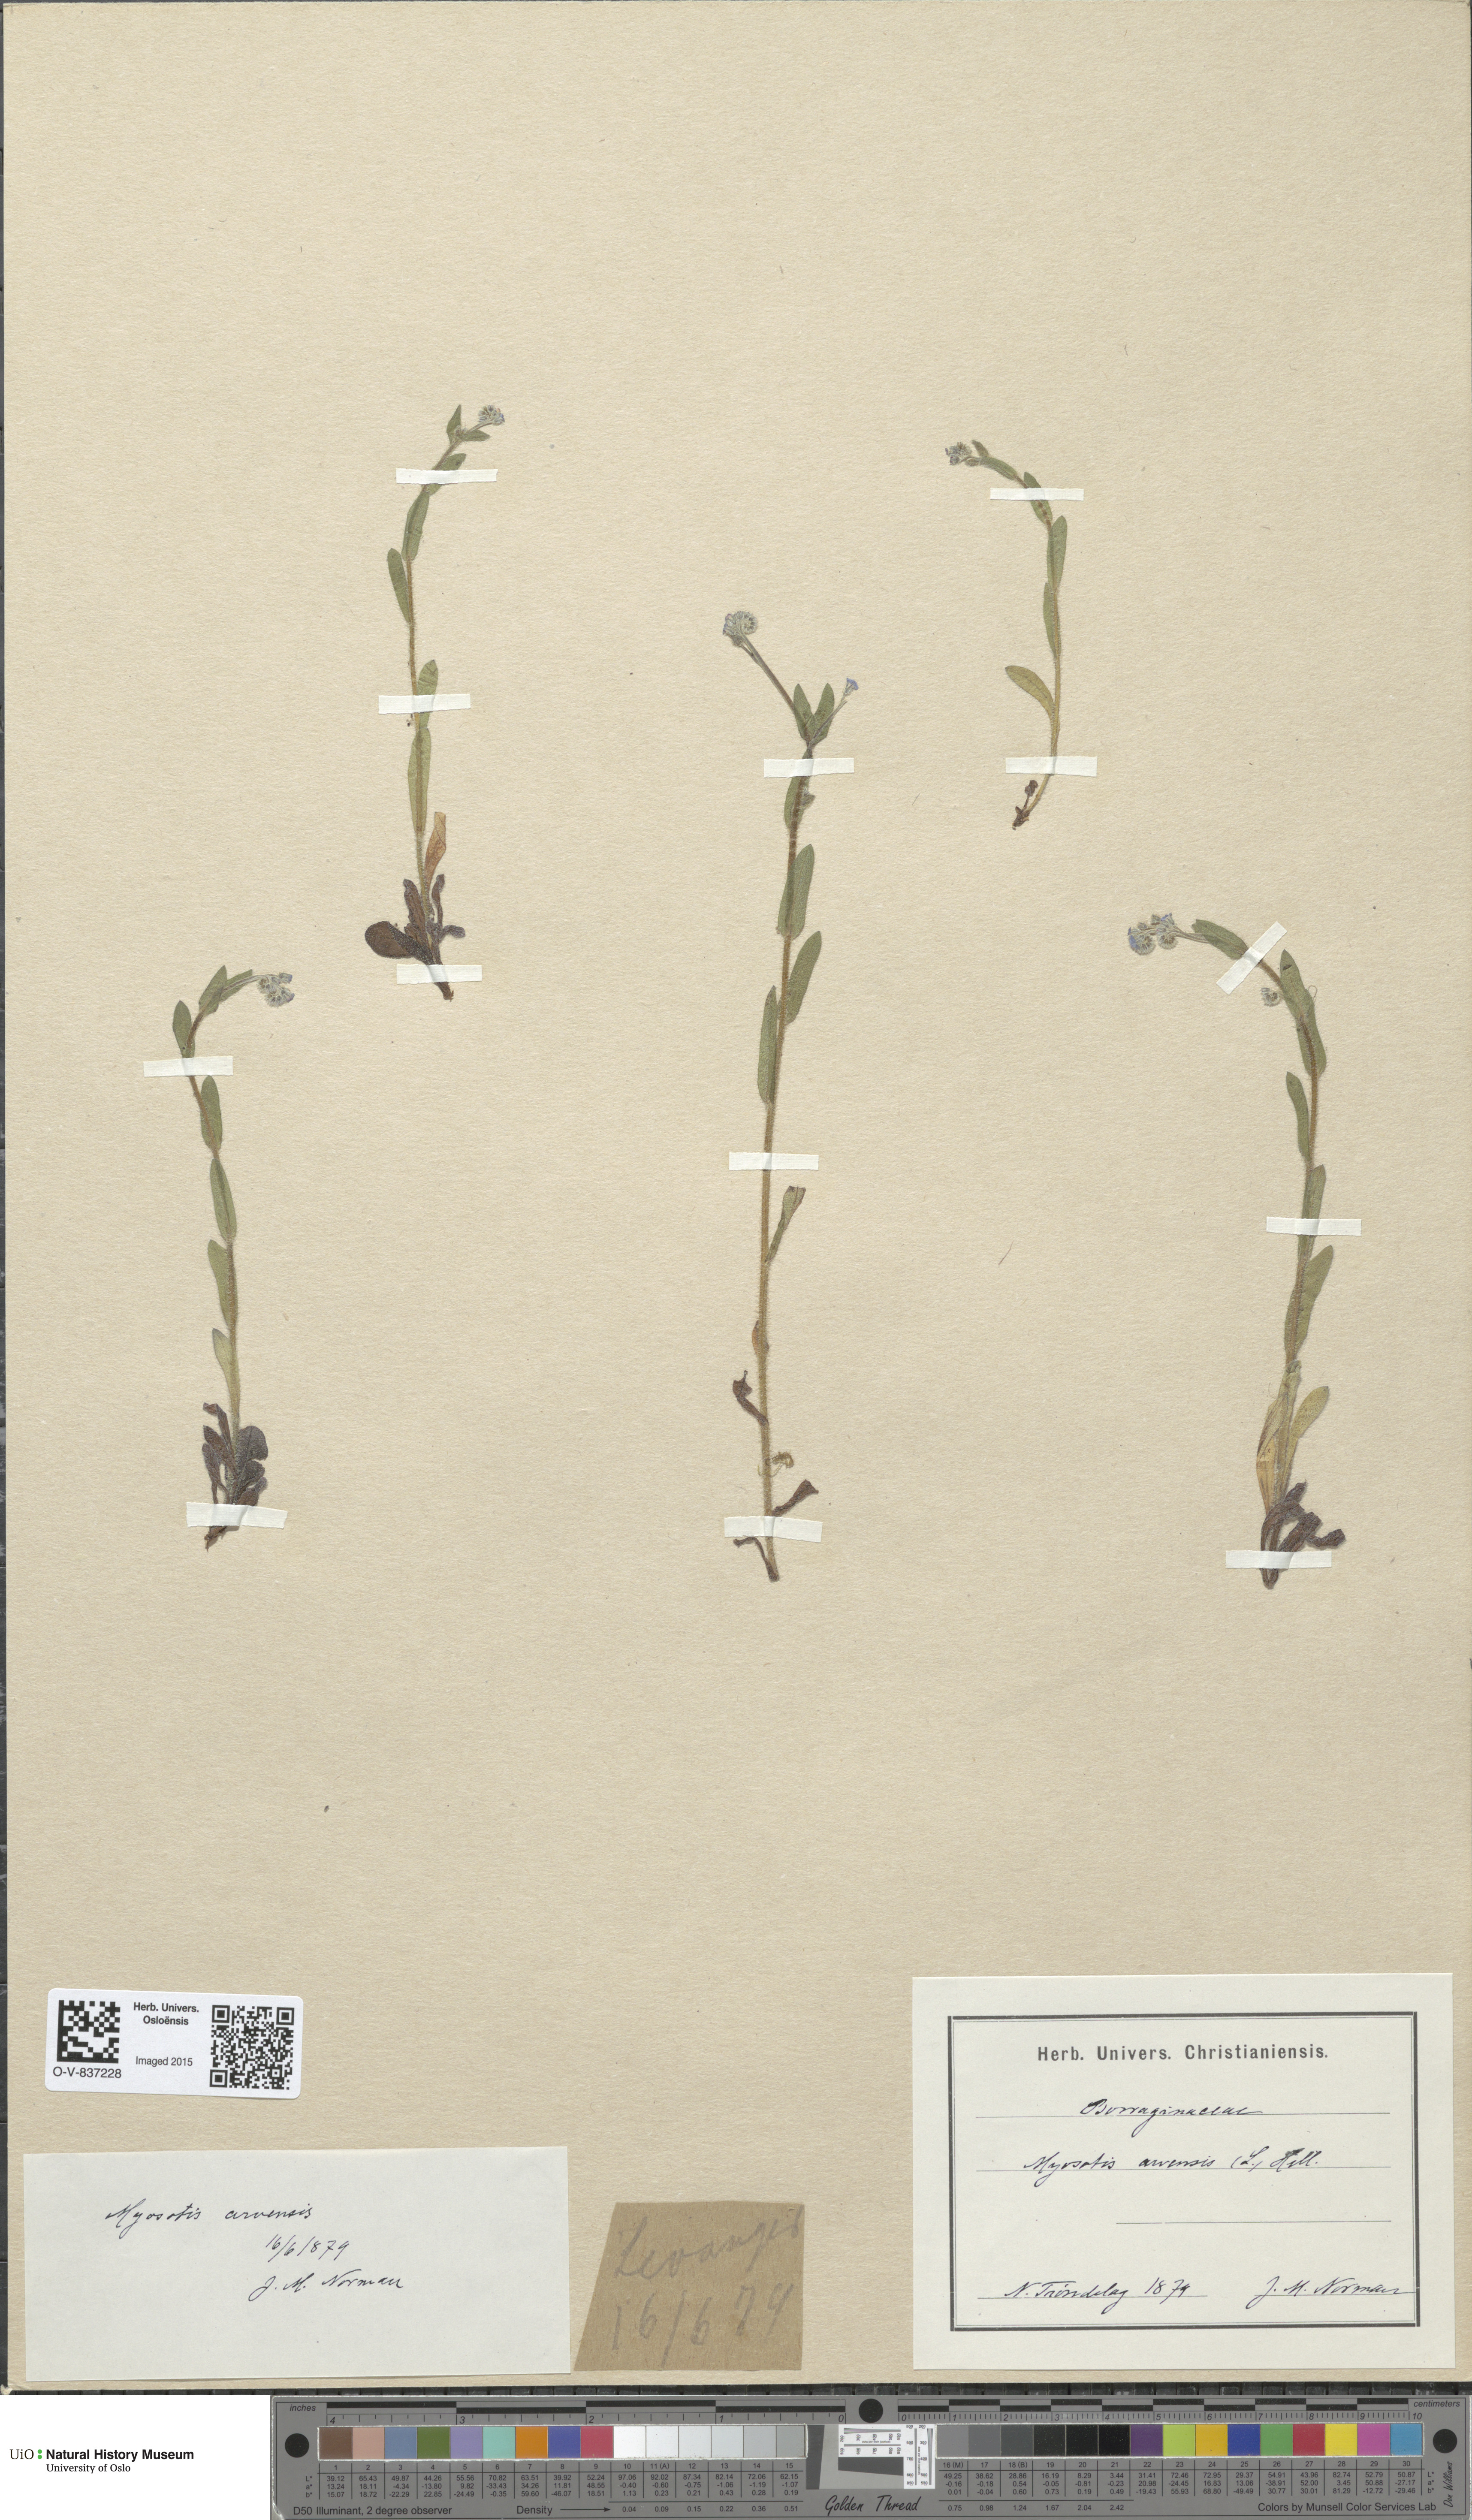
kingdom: Plantae
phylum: Tracheophyta
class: Magnoliopsida
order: Boraginales
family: Boraginaceae
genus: Myosotis
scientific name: Myosotis arvensis
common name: Field forget-me-not
